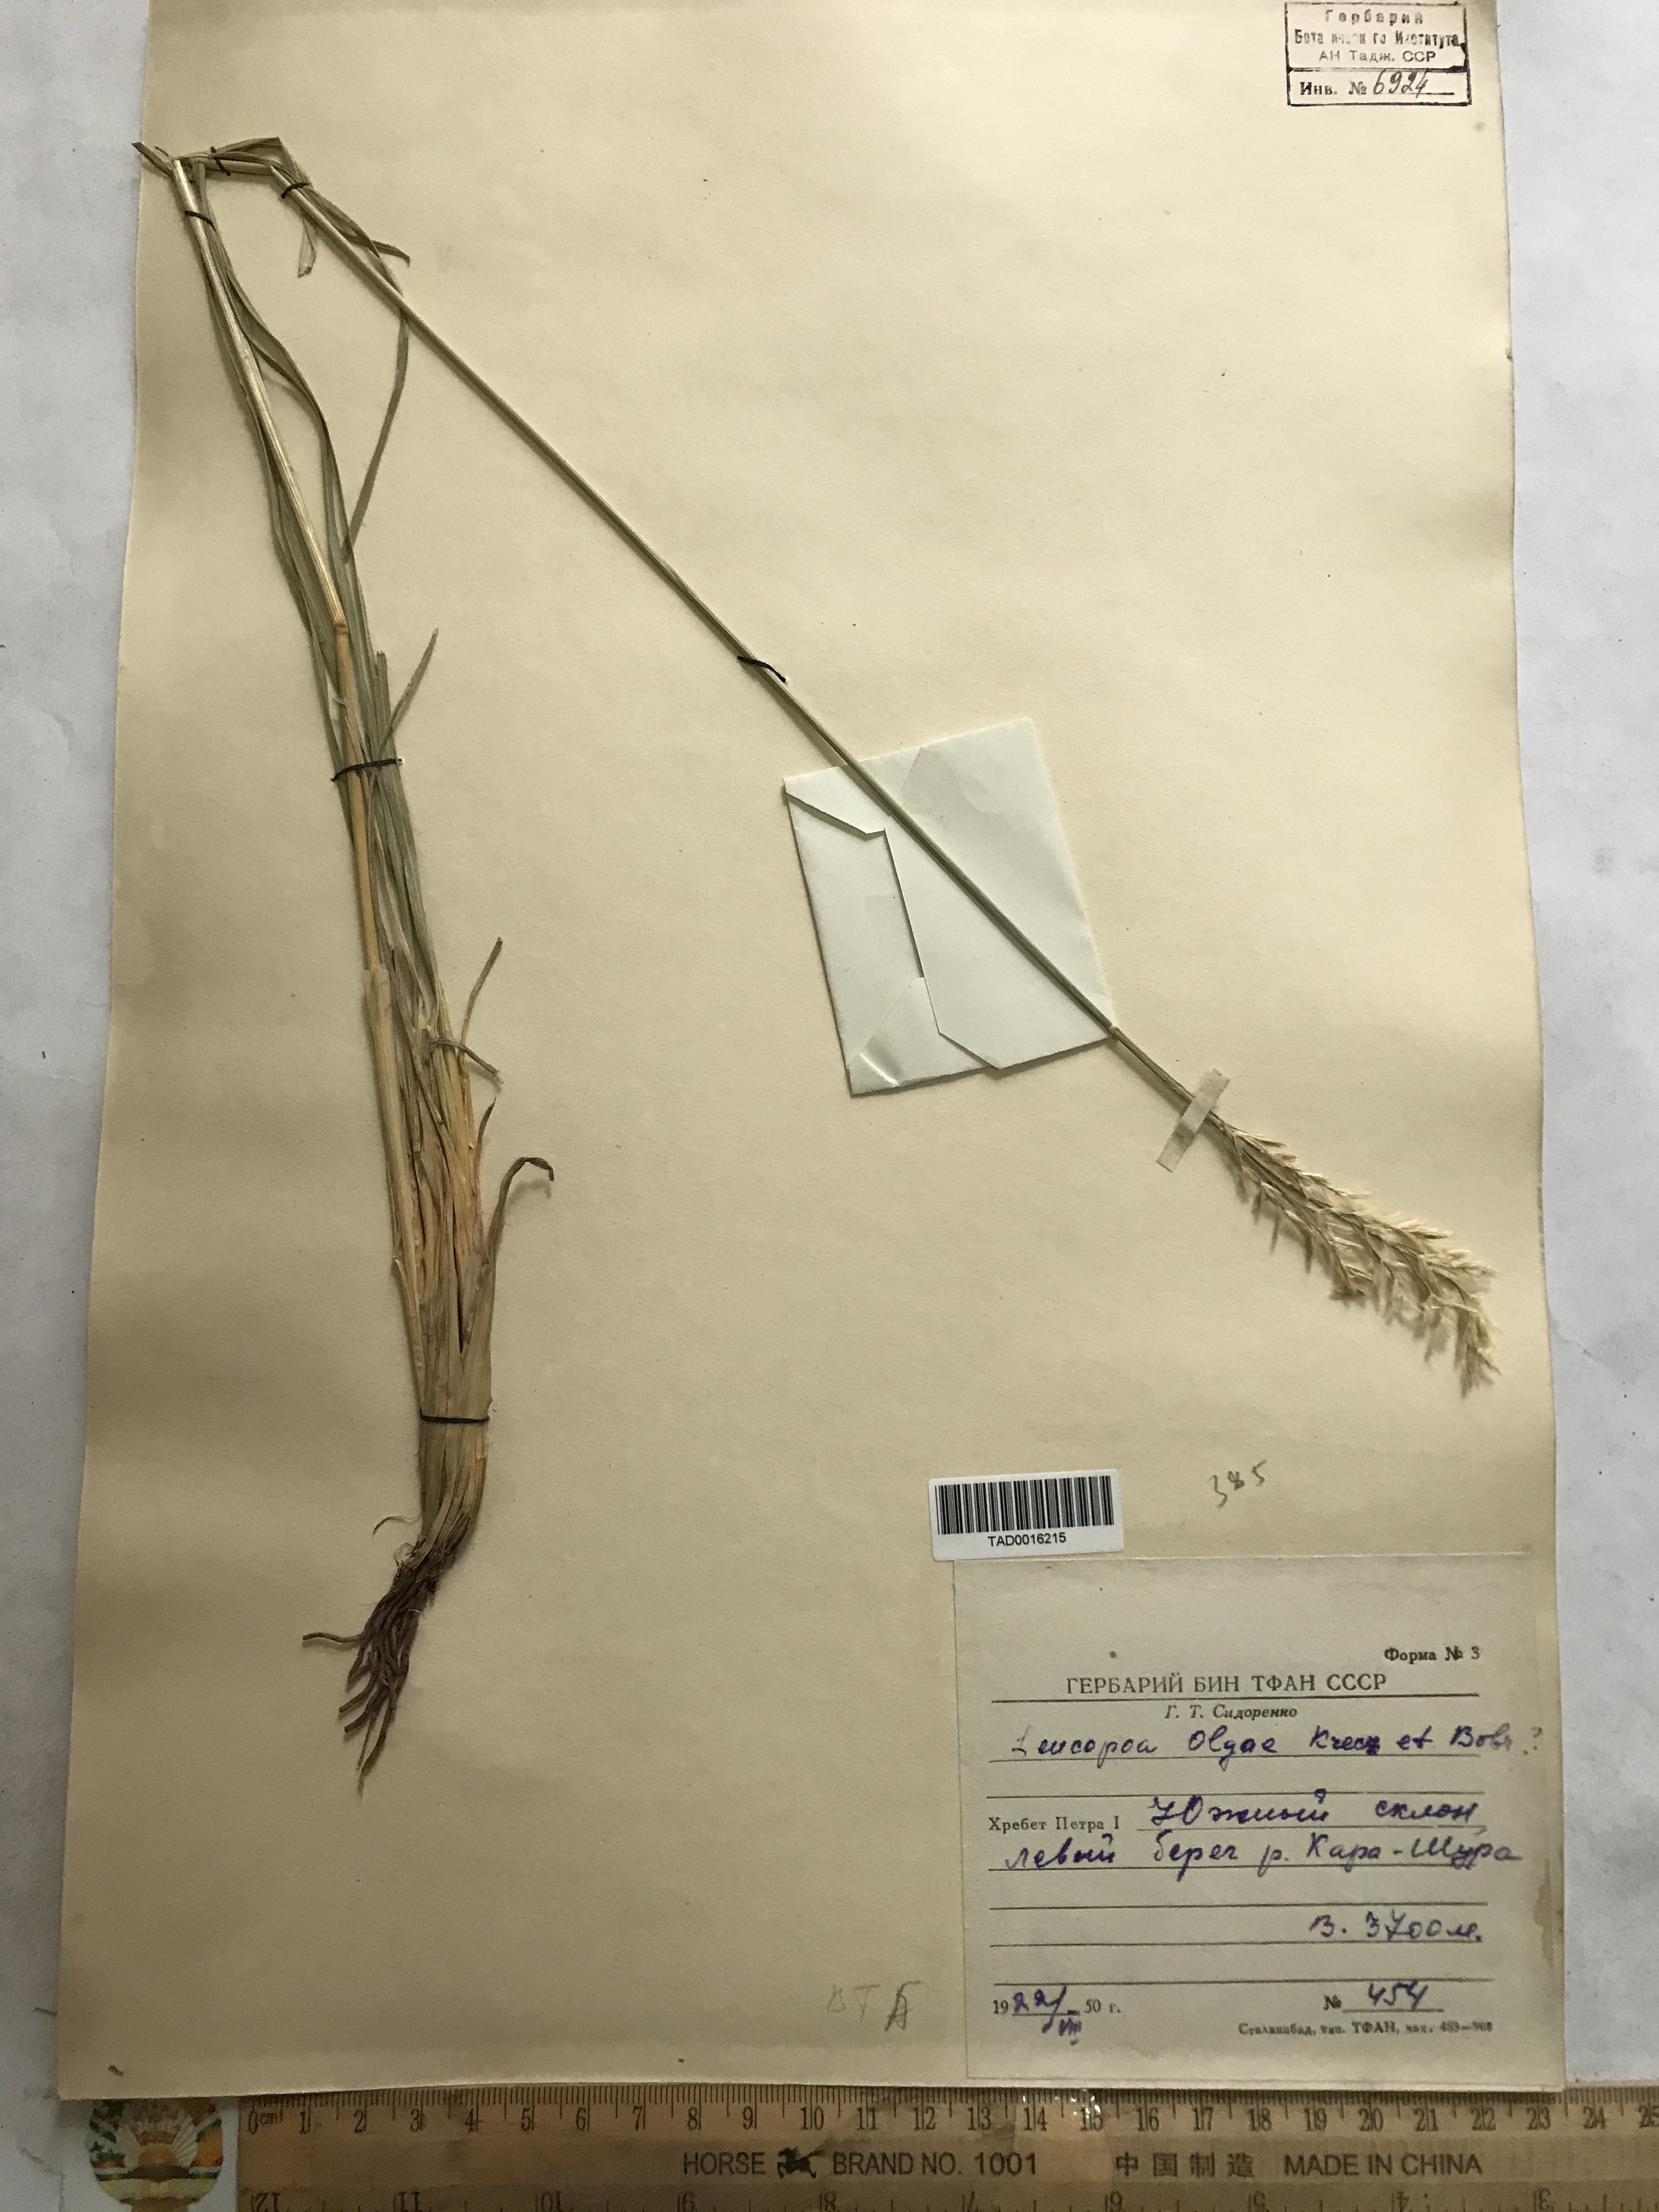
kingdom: Plantae
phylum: Tracheophyta
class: Liliopsida
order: Poales
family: Poaceae
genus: Festuca
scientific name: Festuca olgae
